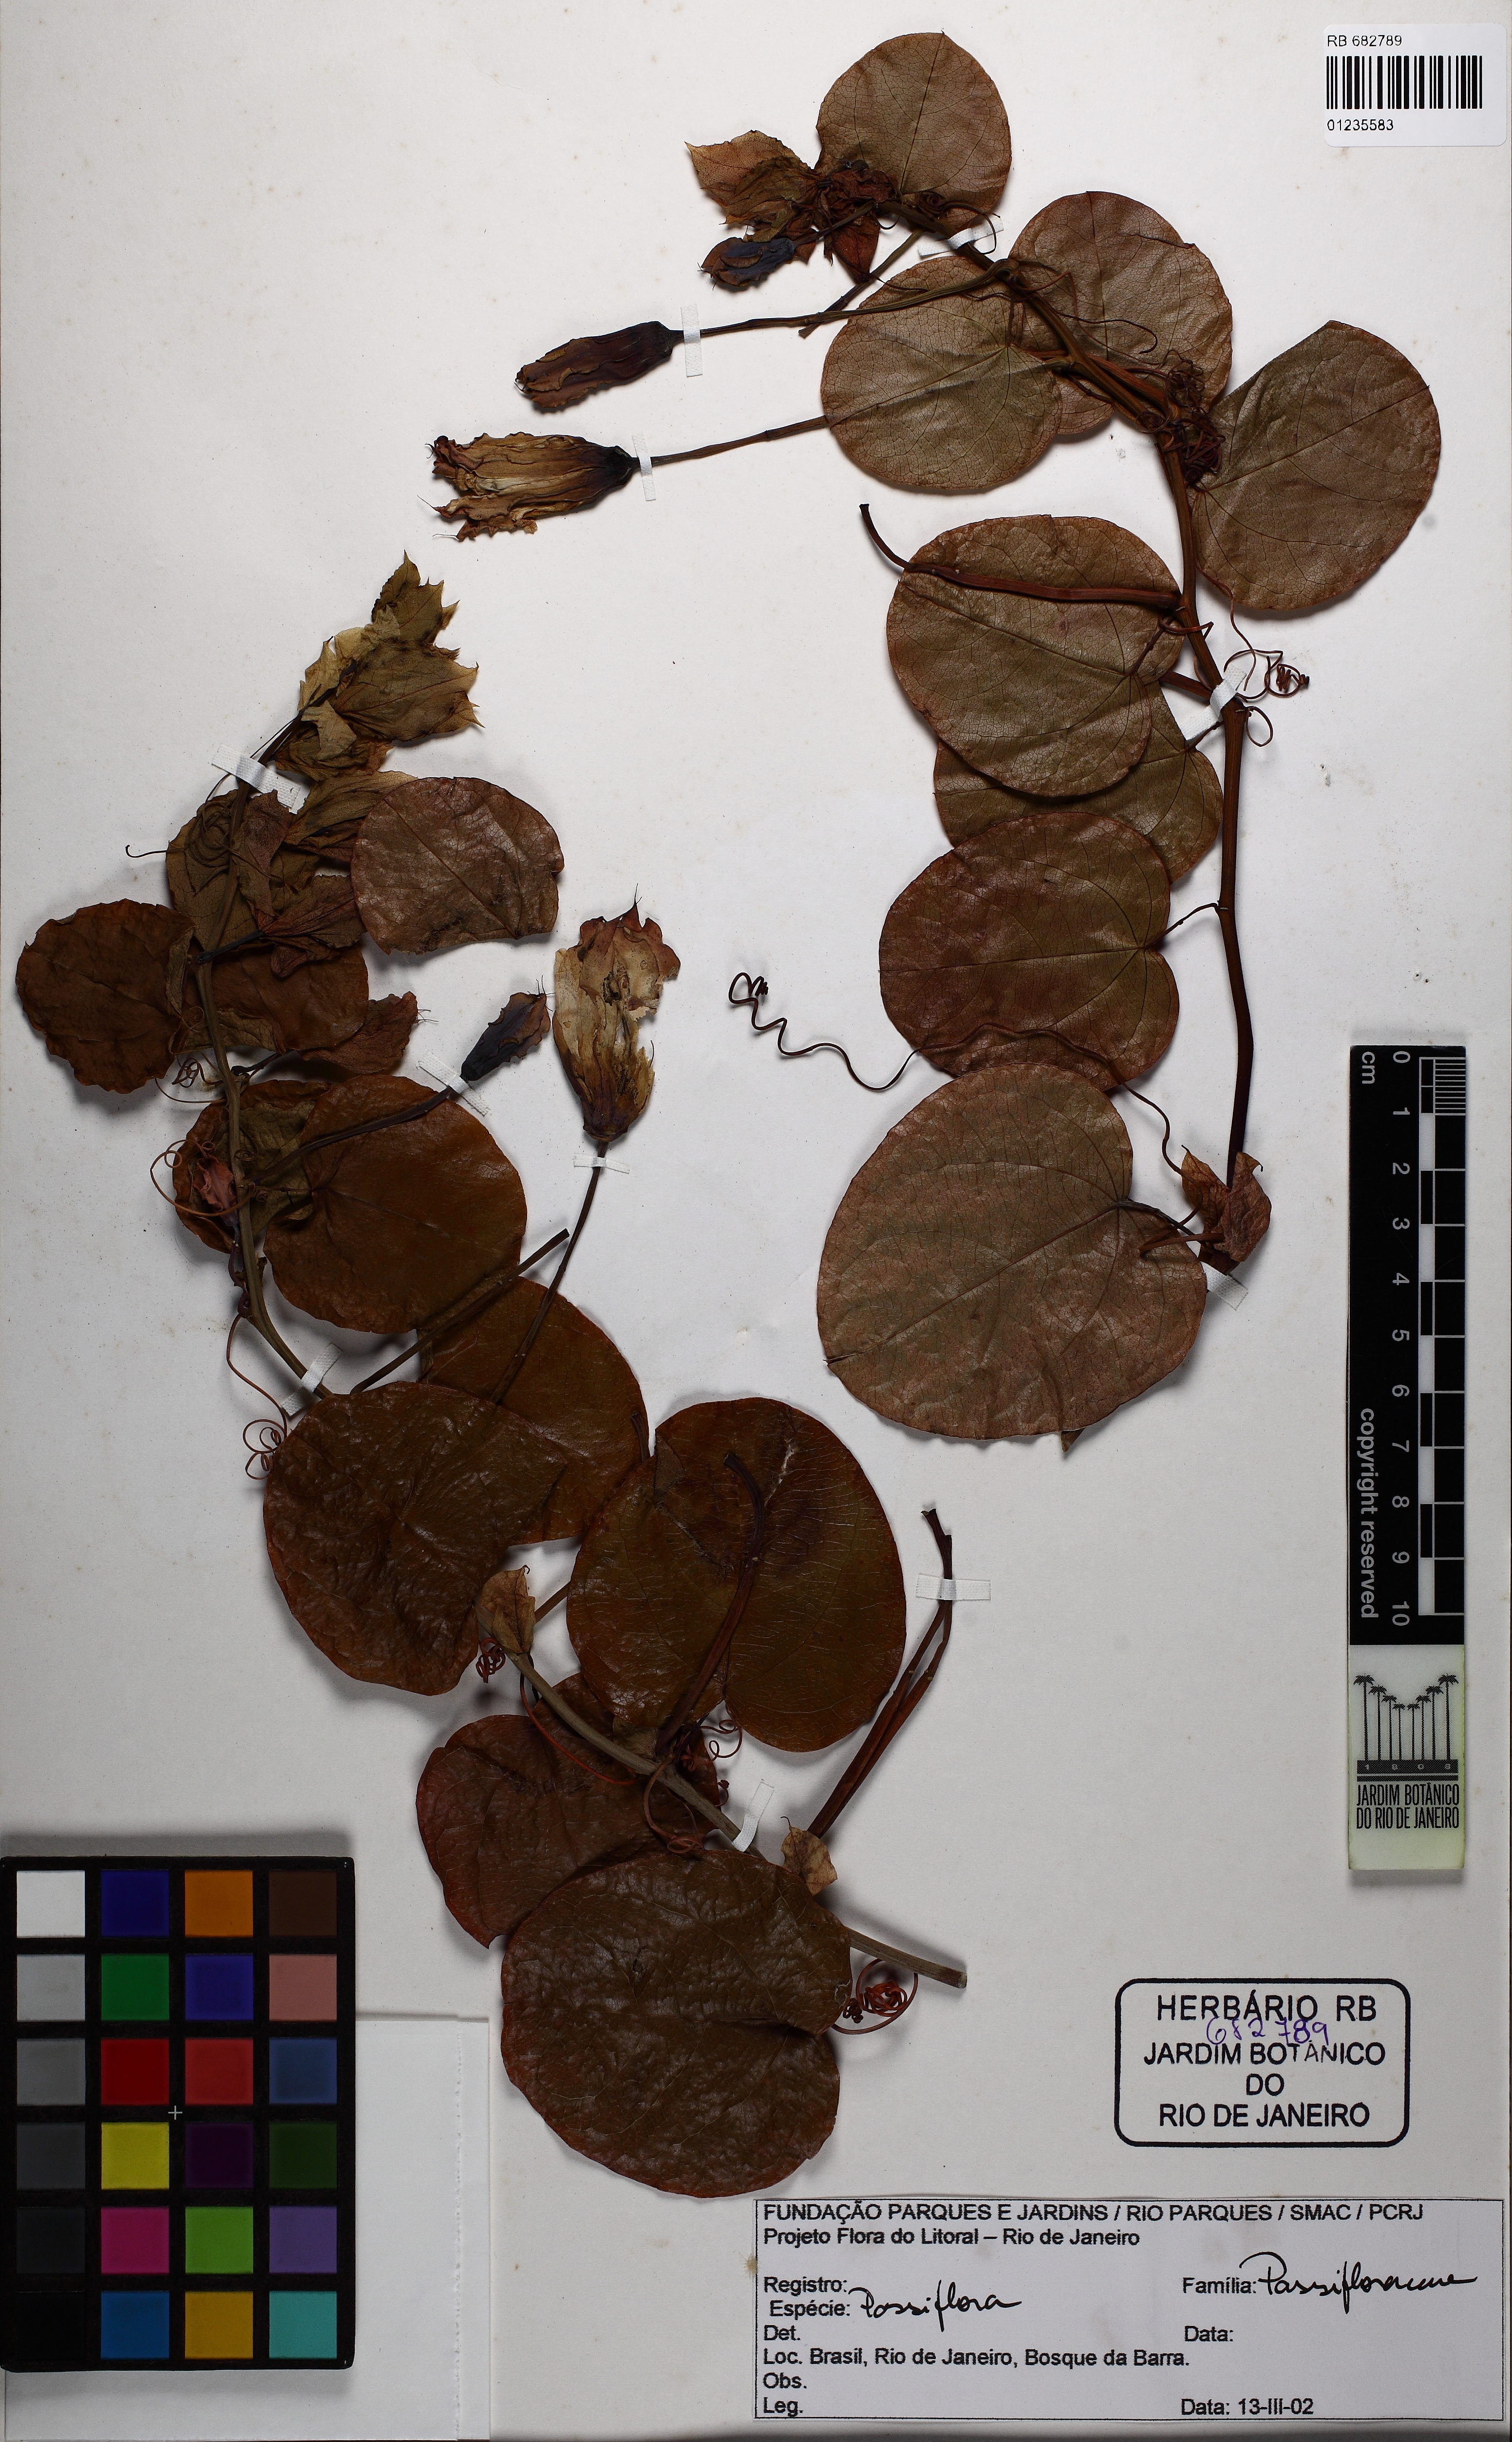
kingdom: Plantae
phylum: Tracheophyta
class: Magnoliopsida
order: Malpighiales
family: Passifloraceae
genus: Passiflora
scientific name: Passiflora
